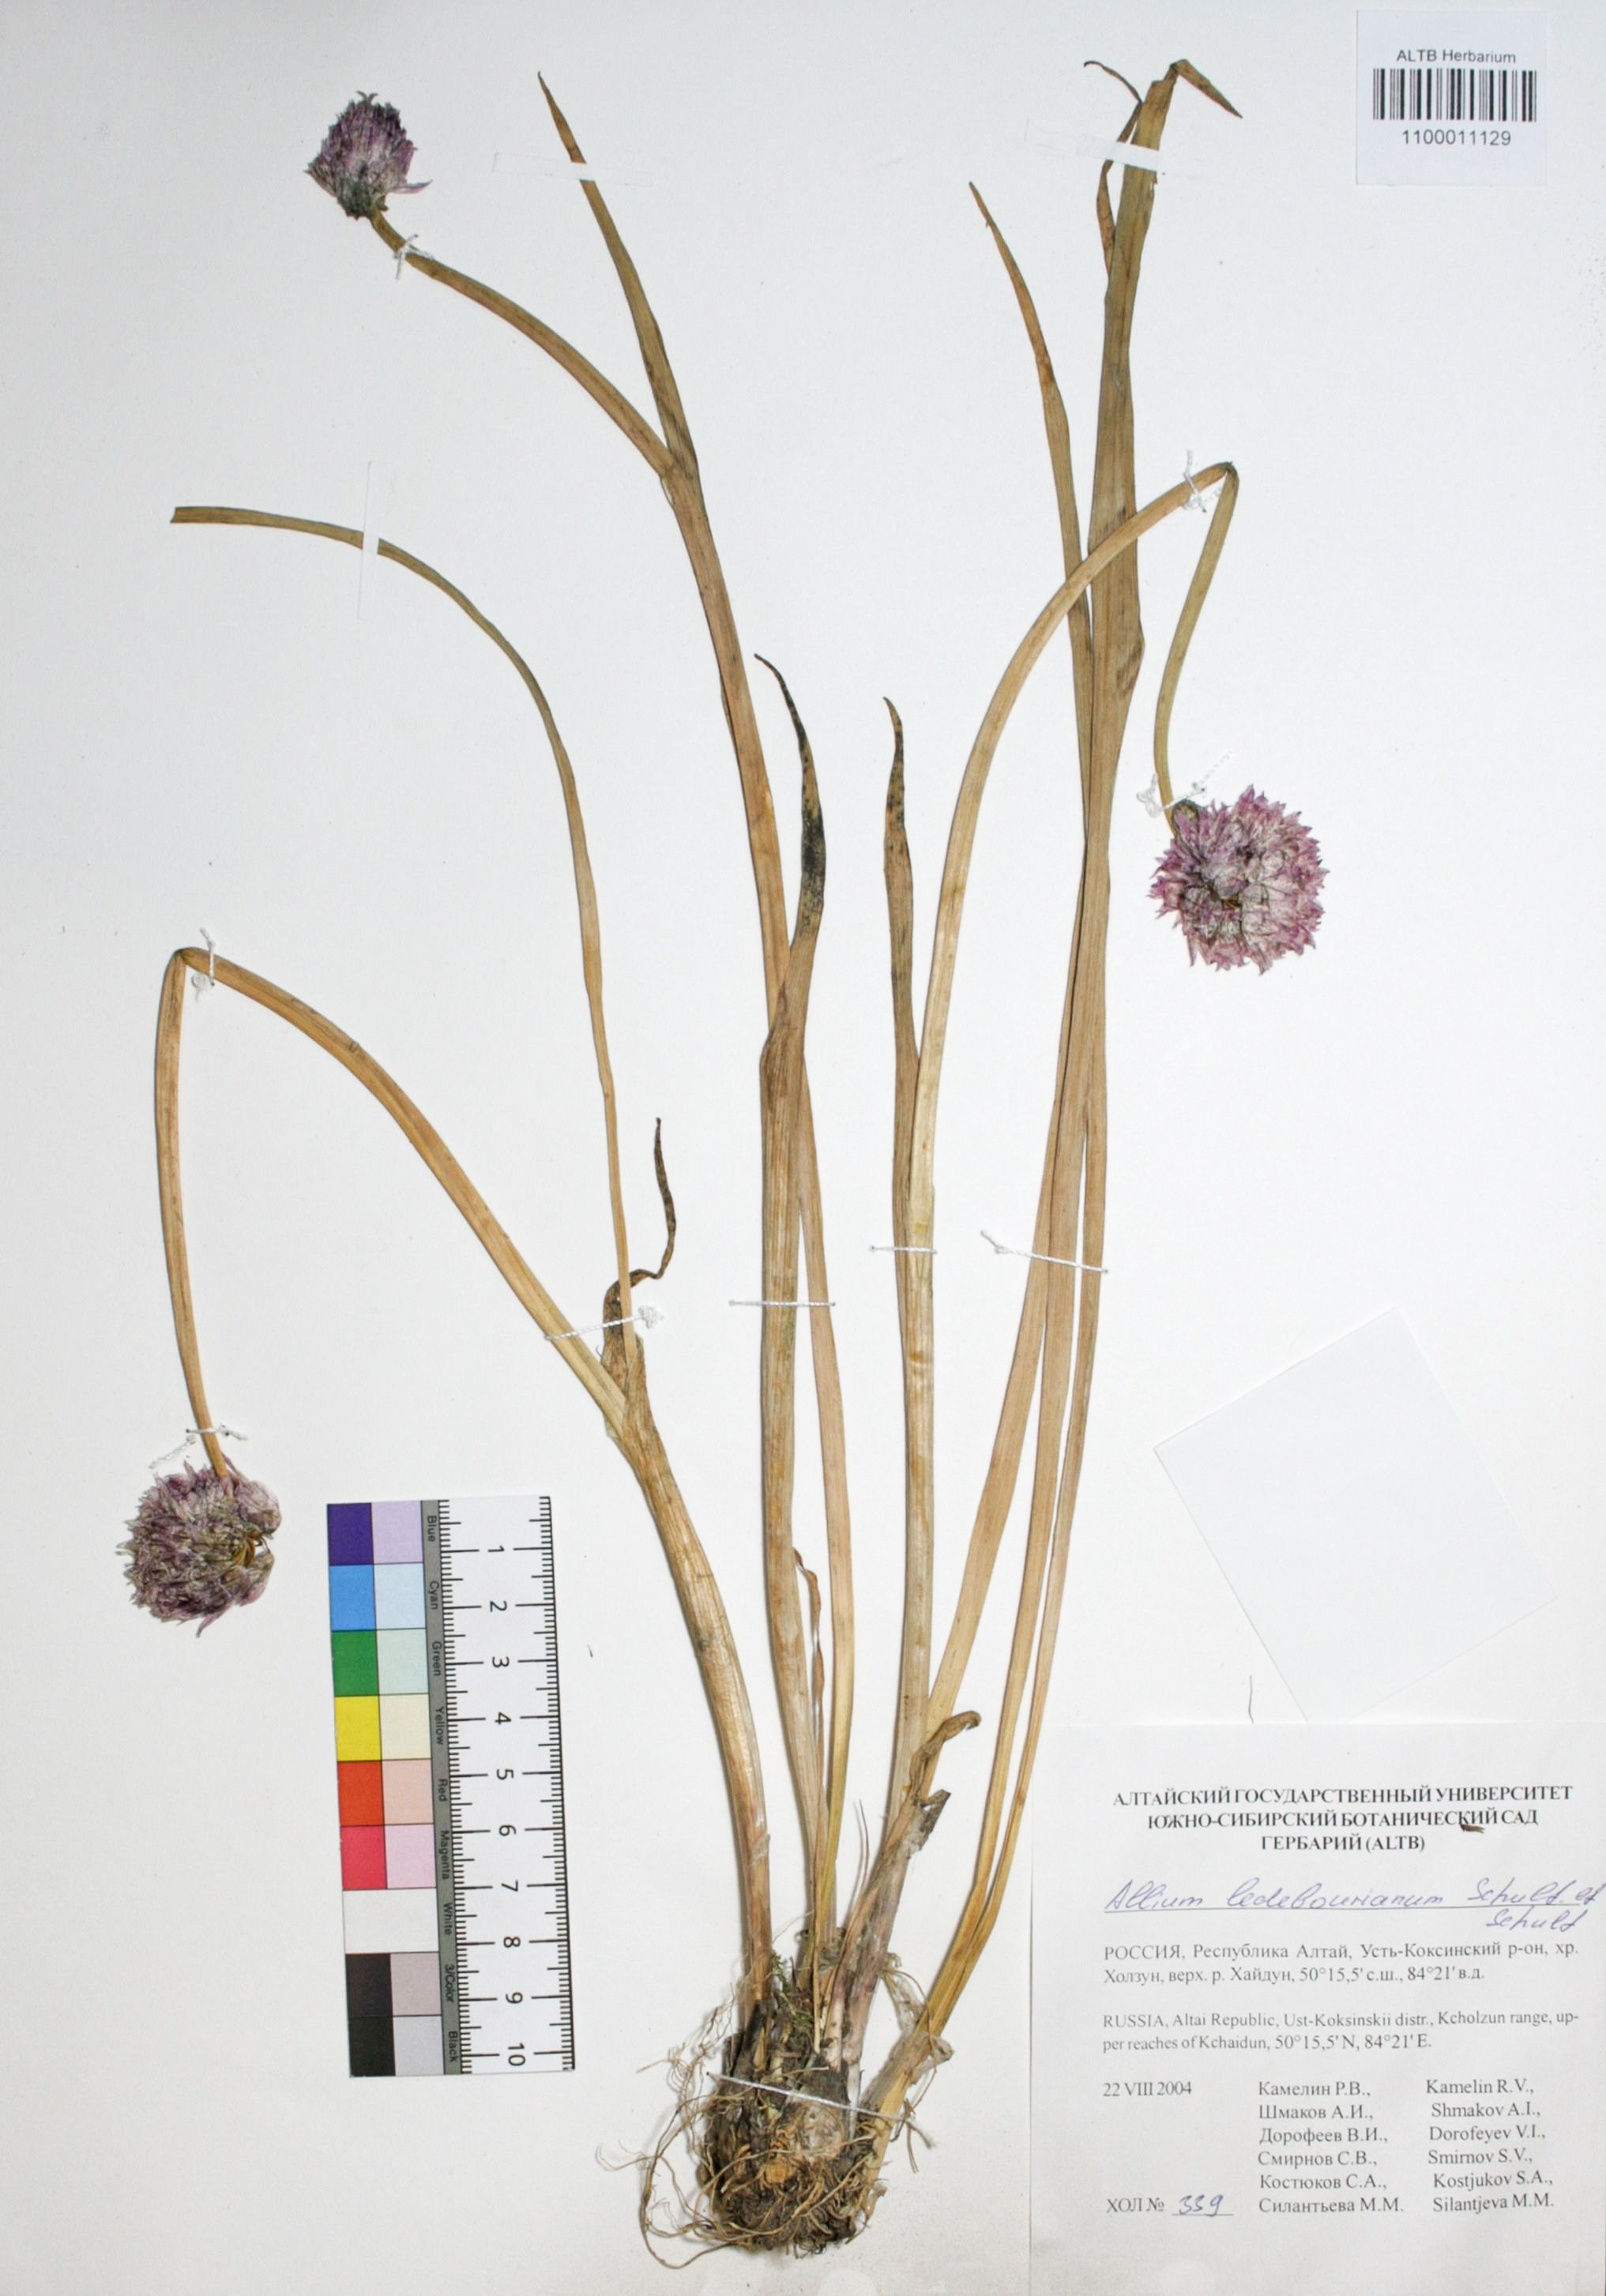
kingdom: Plantae
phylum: Tracheophyta
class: Liliopsida
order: Asparagales
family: Amaryllidaceae
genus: Allium
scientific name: Allium ledebourianum
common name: Ledebour chive
